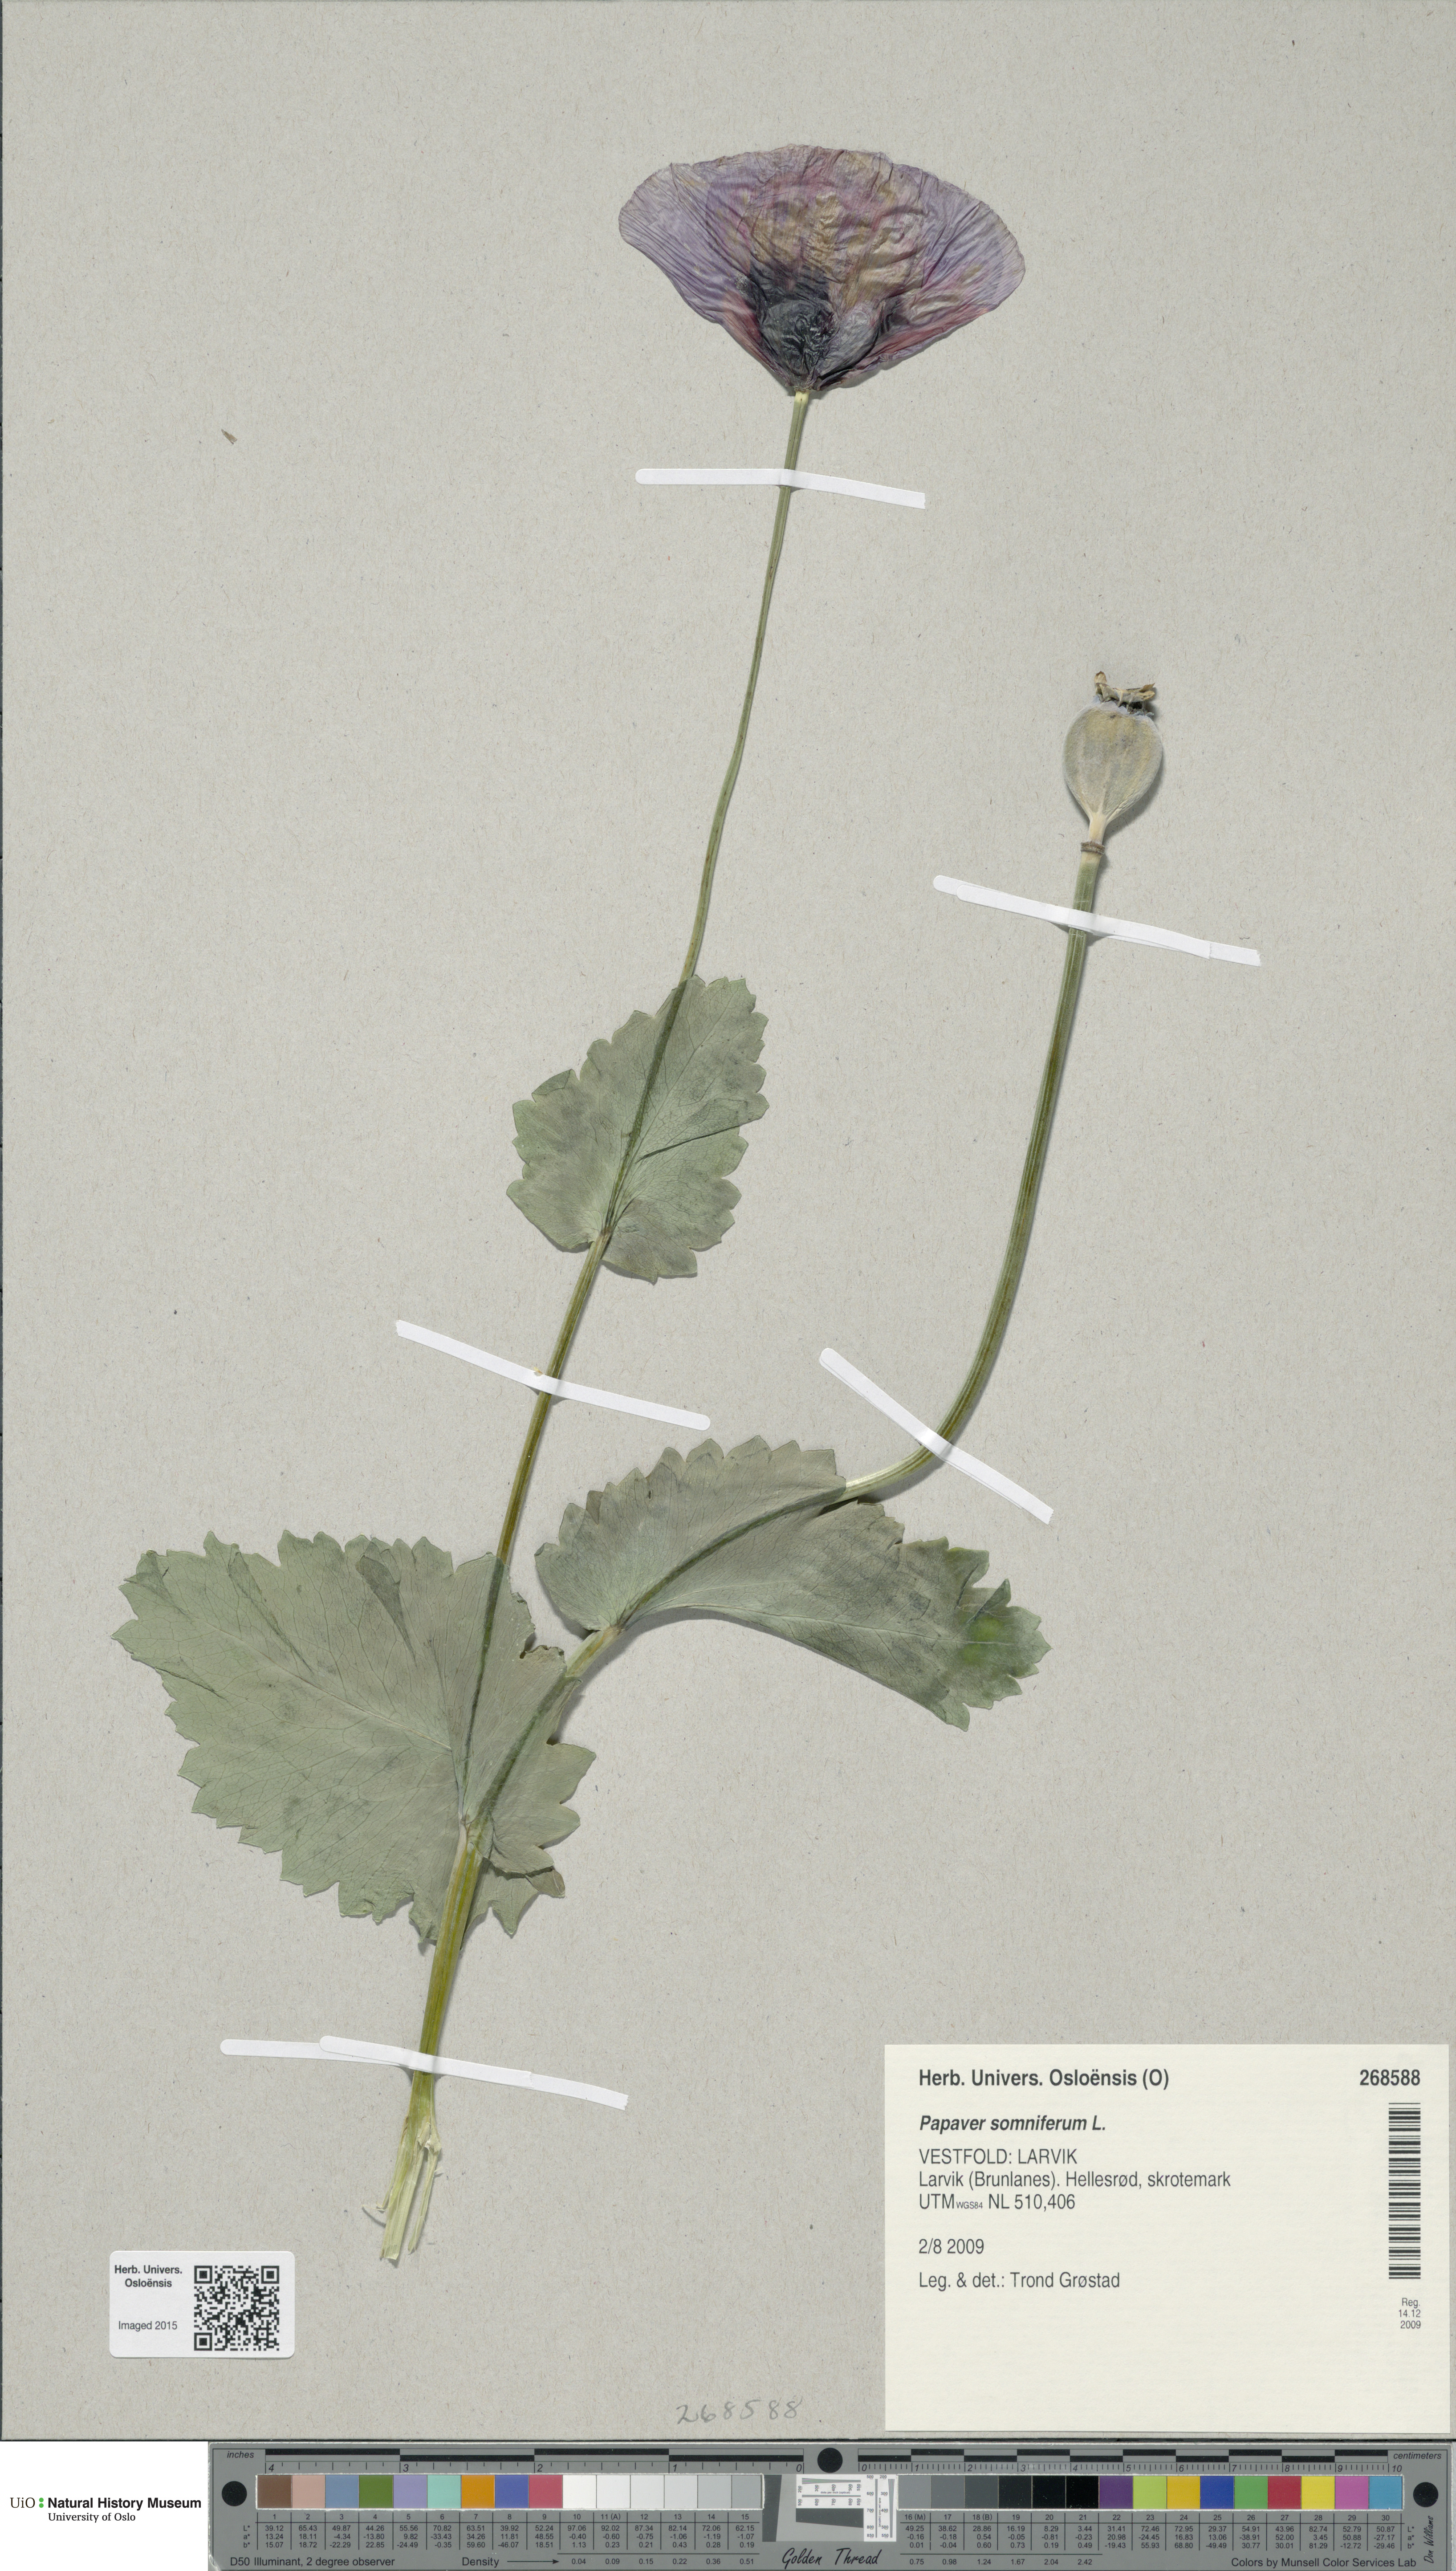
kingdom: Plantae
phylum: Tracheophyta
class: Magnoliopsida
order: Ranunculales
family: Papaveraceae
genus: Papaver
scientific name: Papaver somniferum
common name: Opium poppy
